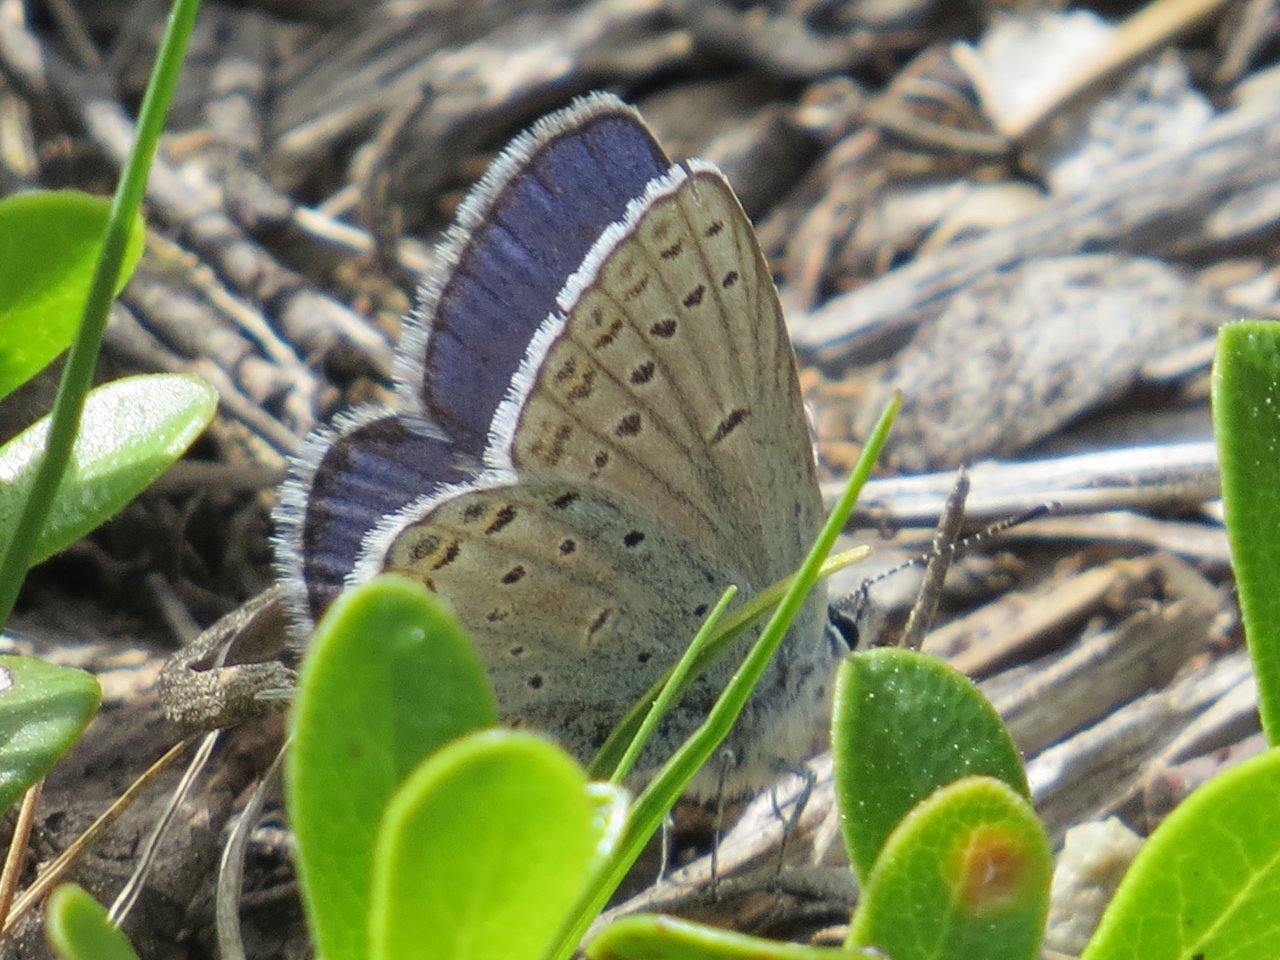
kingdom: Animalia
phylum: Arthropoda
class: Insecta
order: Lepidoptera
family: Lycaenidae
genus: Plebejus
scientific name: Plebejus saepiolus
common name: Greenish Blue
